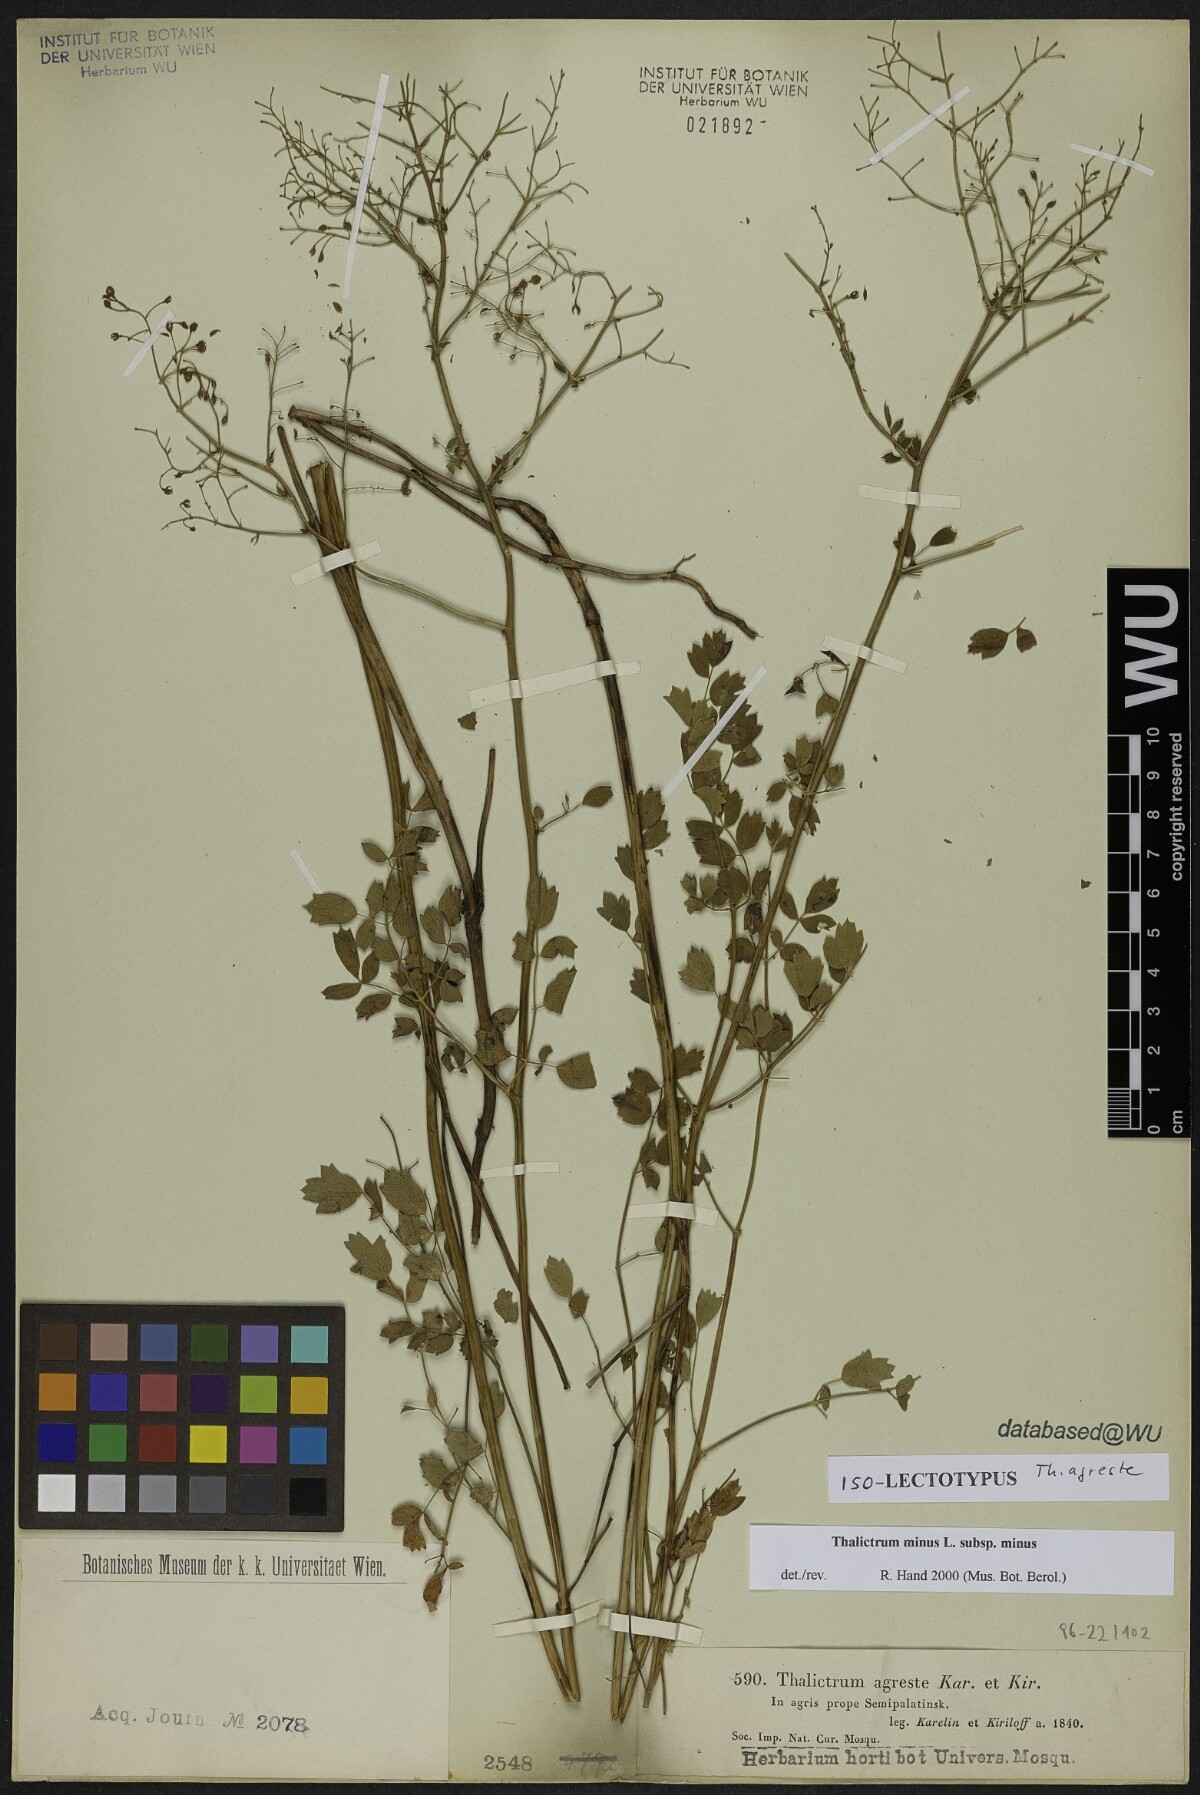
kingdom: Plantae
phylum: Tracheophyta
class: Magnoliopsida
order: Ranunculales
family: Ranunculaceae
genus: Thalictrum
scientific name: Thalictrum minus
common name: Lesser meadow-rue
